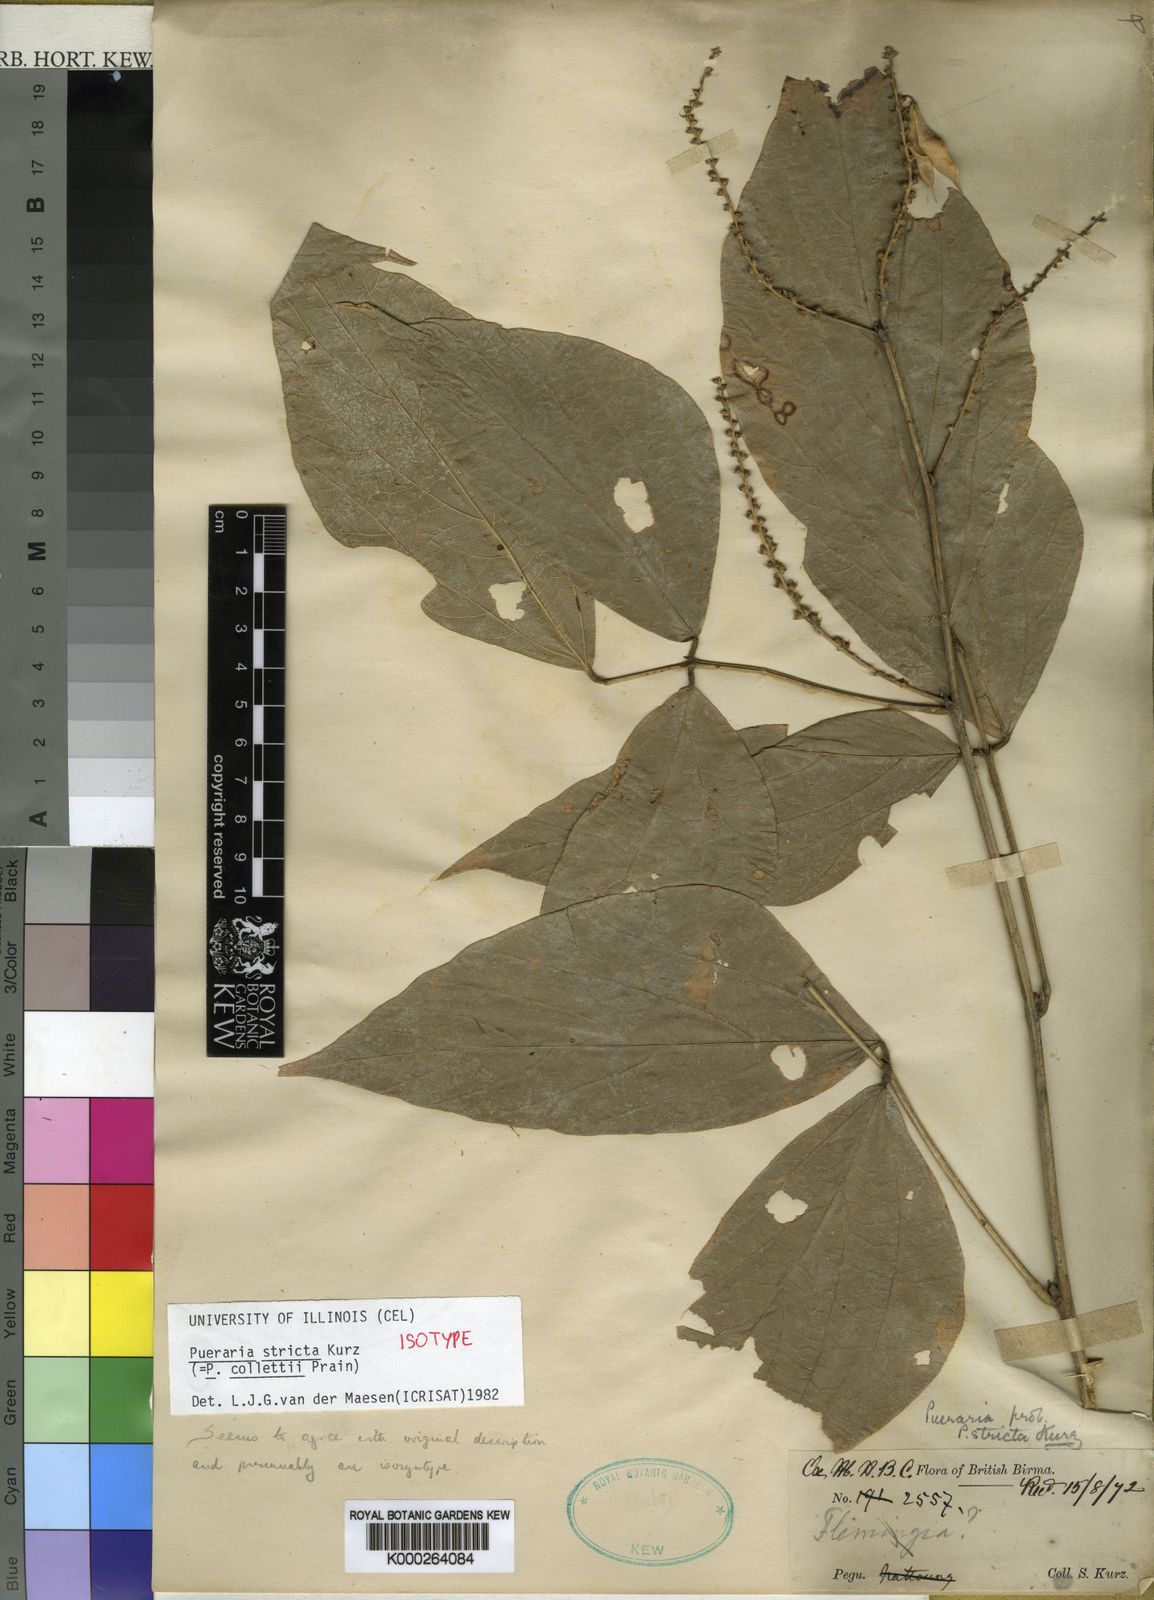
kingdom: Plantae
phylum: Tracheophyta
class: Magnoliopsida
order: Fabales
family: Fabaceae
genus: Teyleria
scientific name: Teyleria stricta
